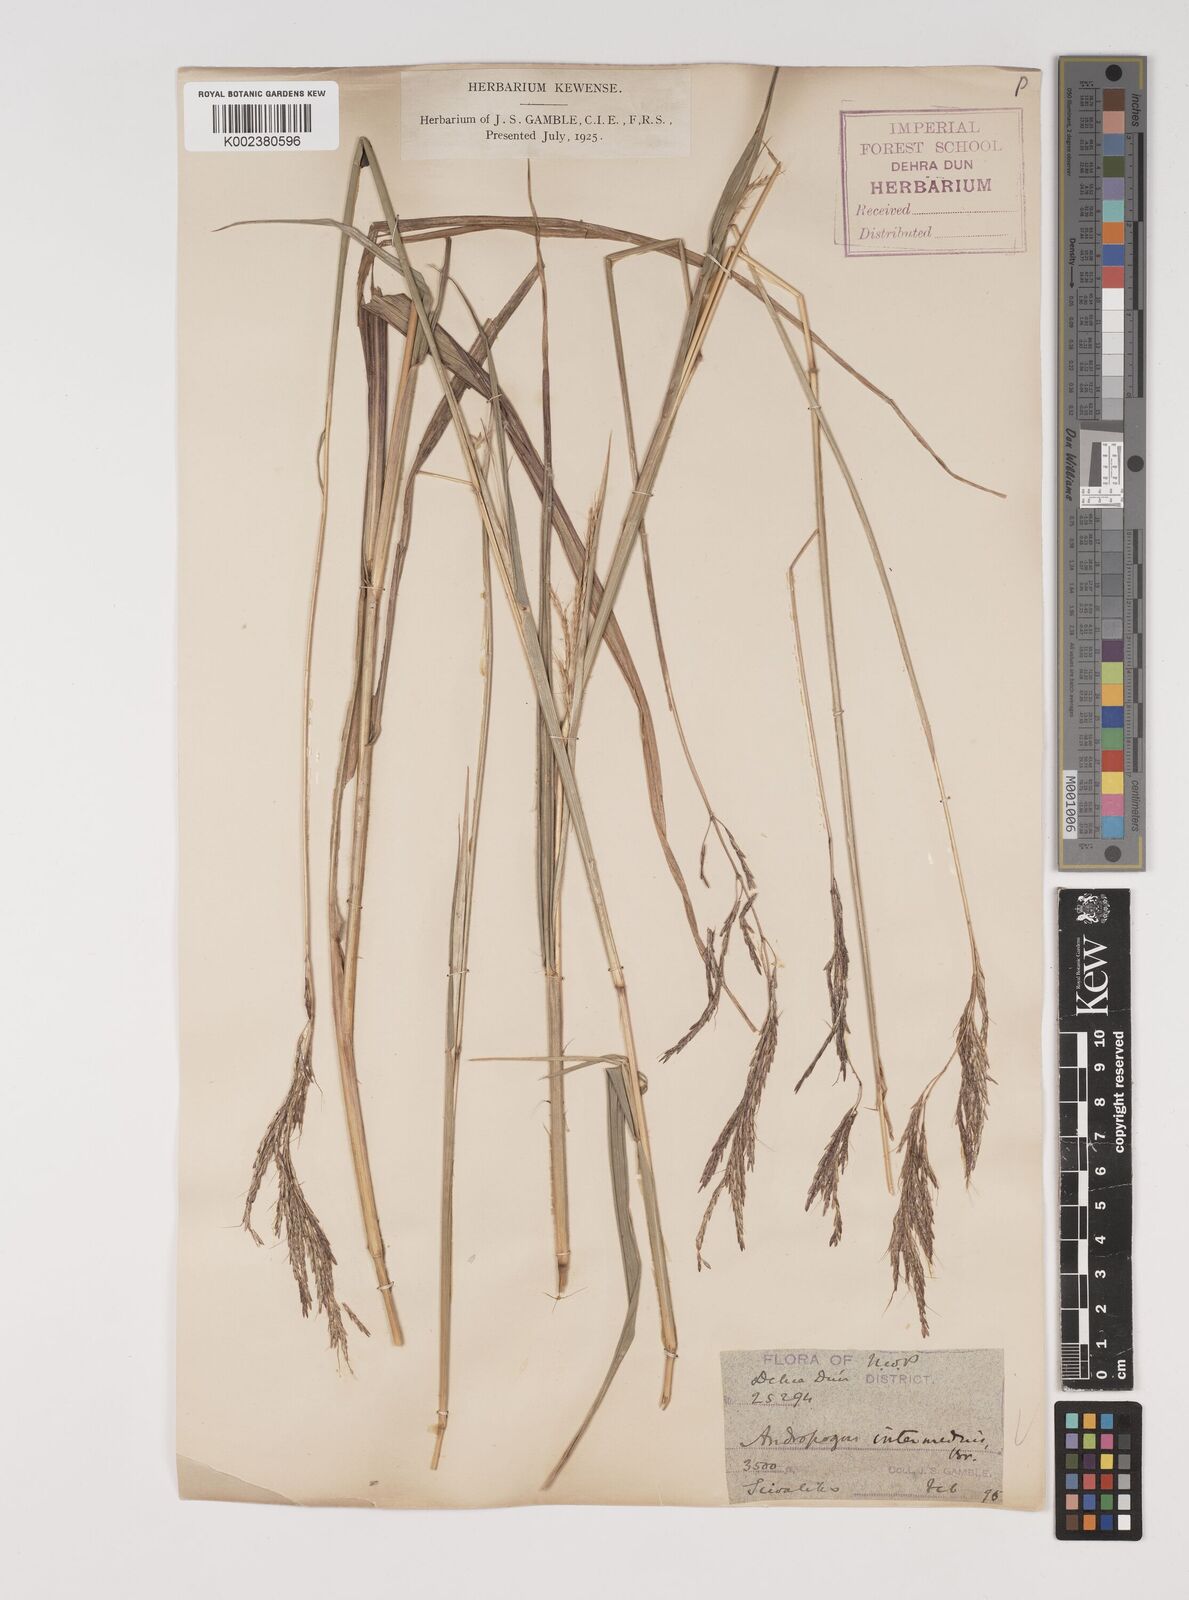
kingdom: Plantae
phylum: Tracheophyta
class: Liliopsida
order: Poales
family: Poaceae
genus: Bothriochloa
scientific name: Bothriochloa bladhii
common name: Caucasian bluestem
